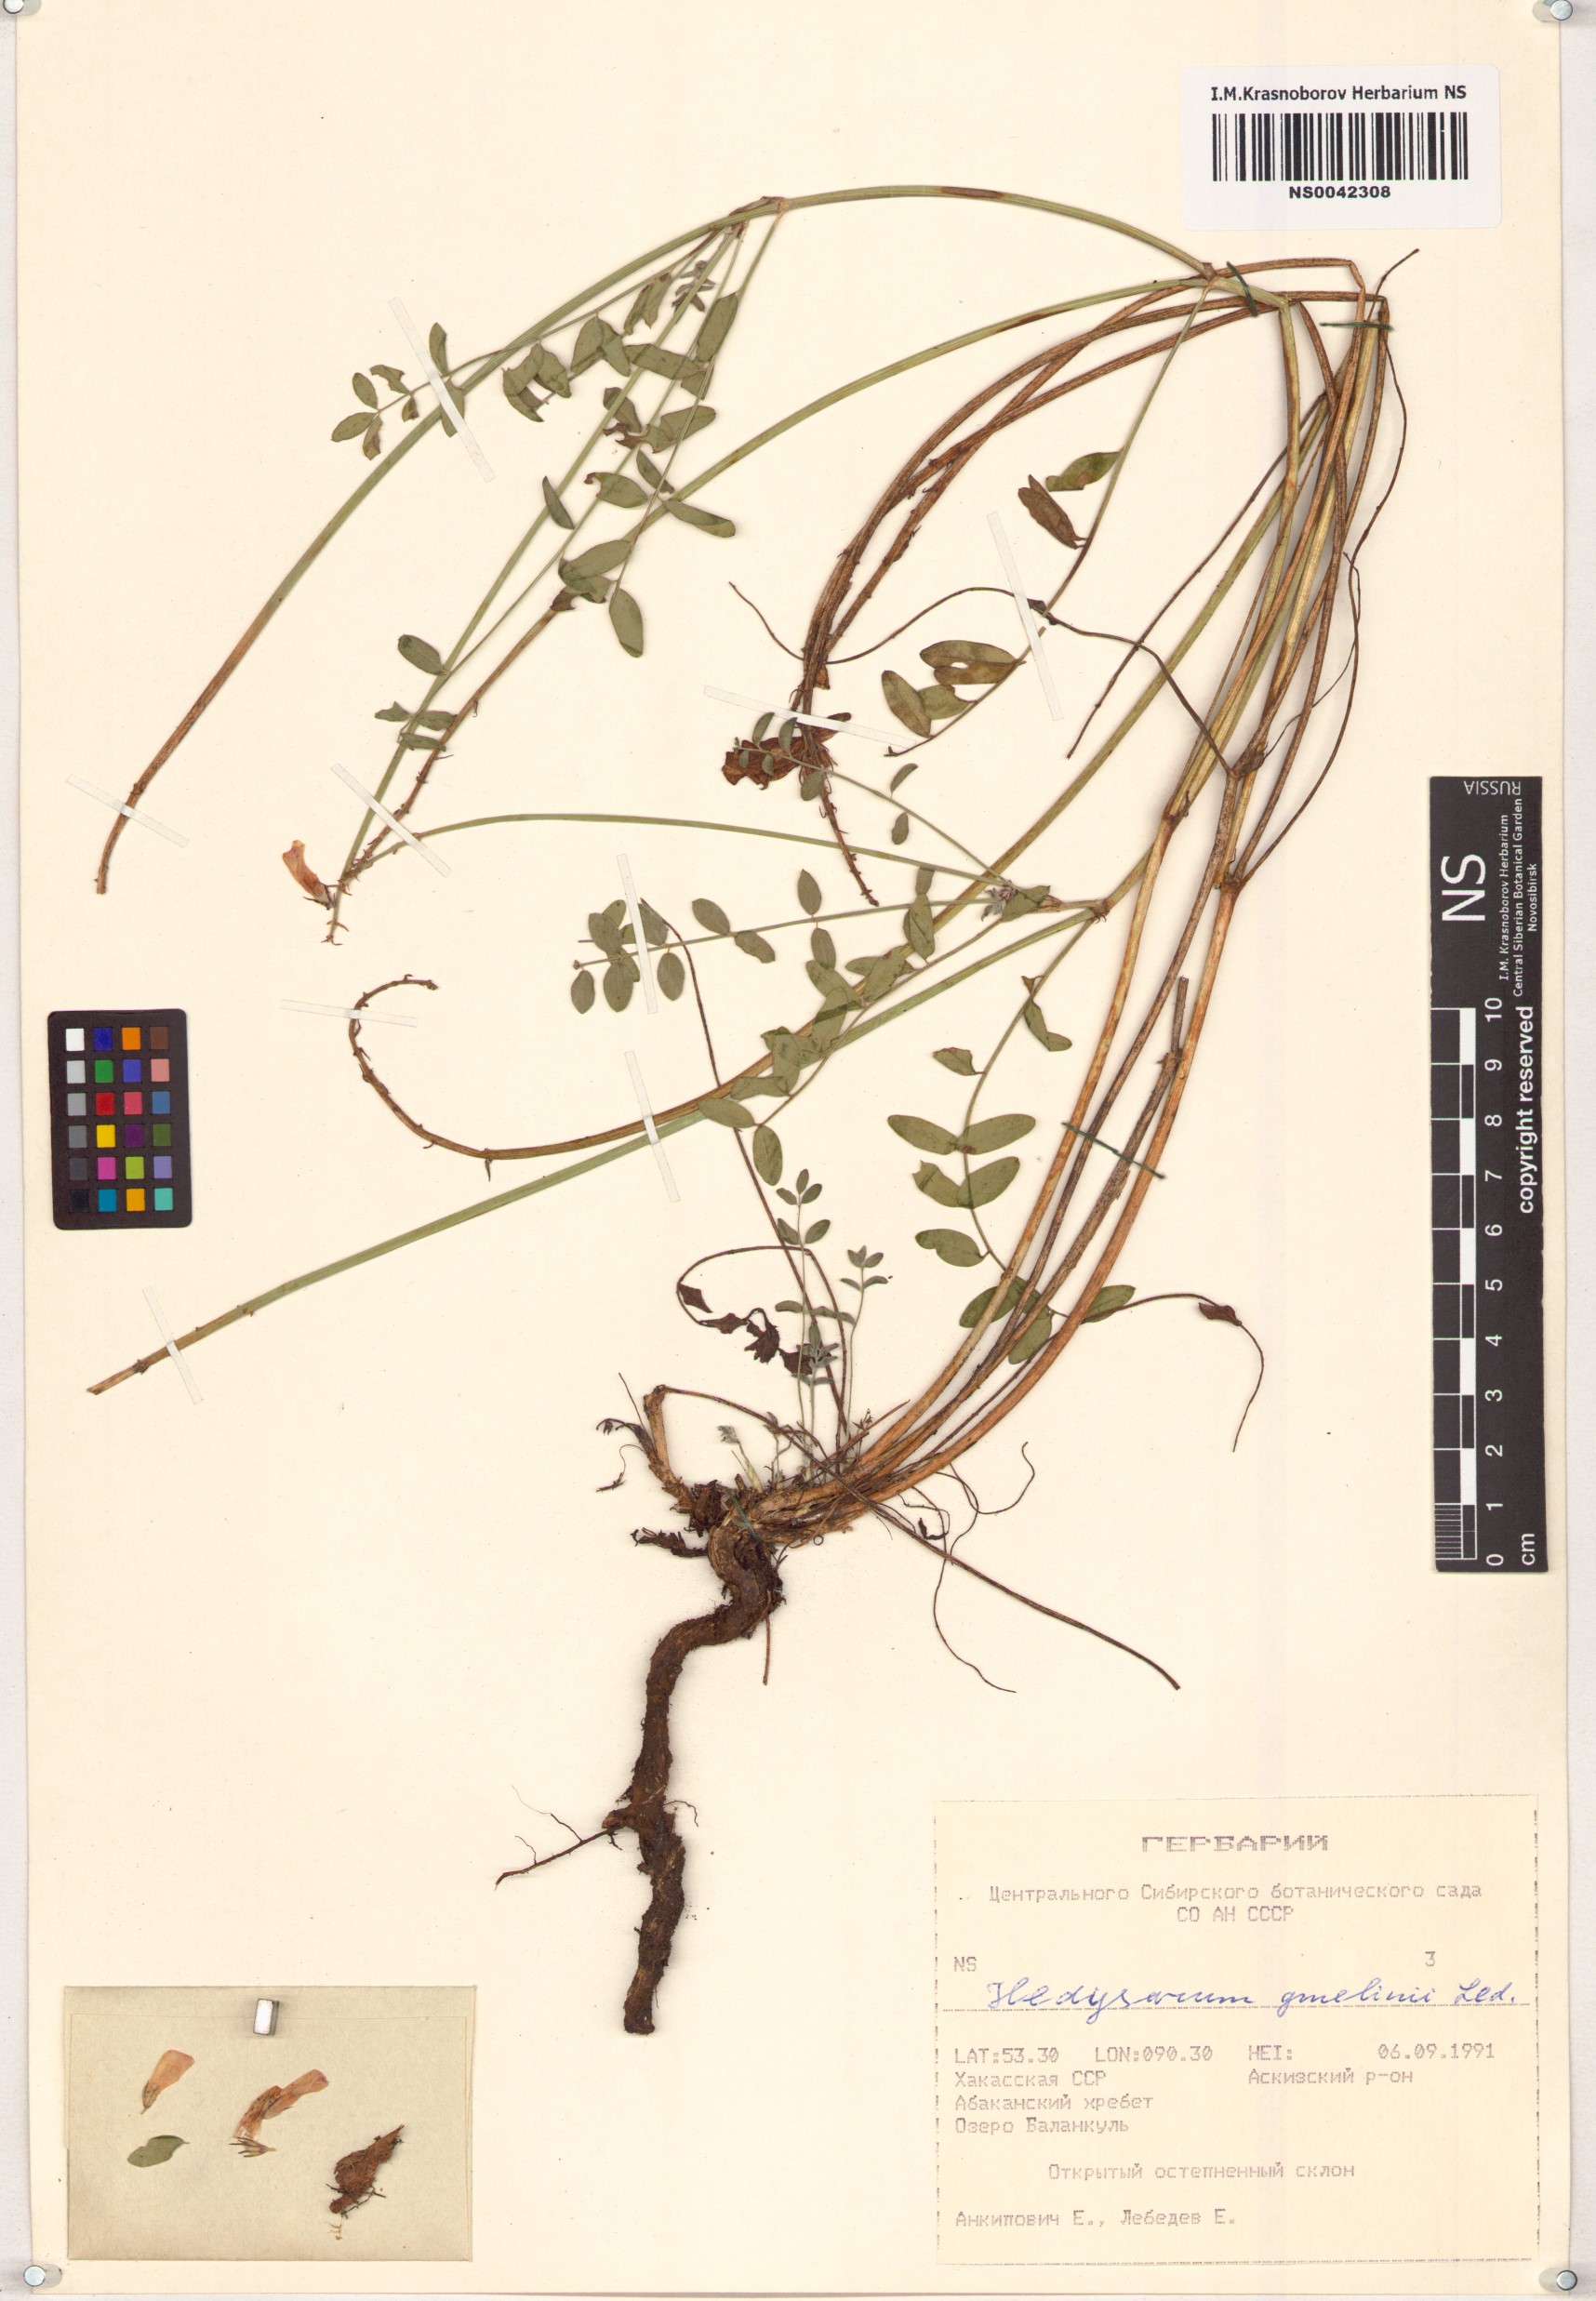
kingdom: Plantae
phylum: Tracheophyta
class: Magnoliopsida
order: Fabales
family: Fabaceae
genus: Hedysarum
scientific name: Hedysarum gmelinii
